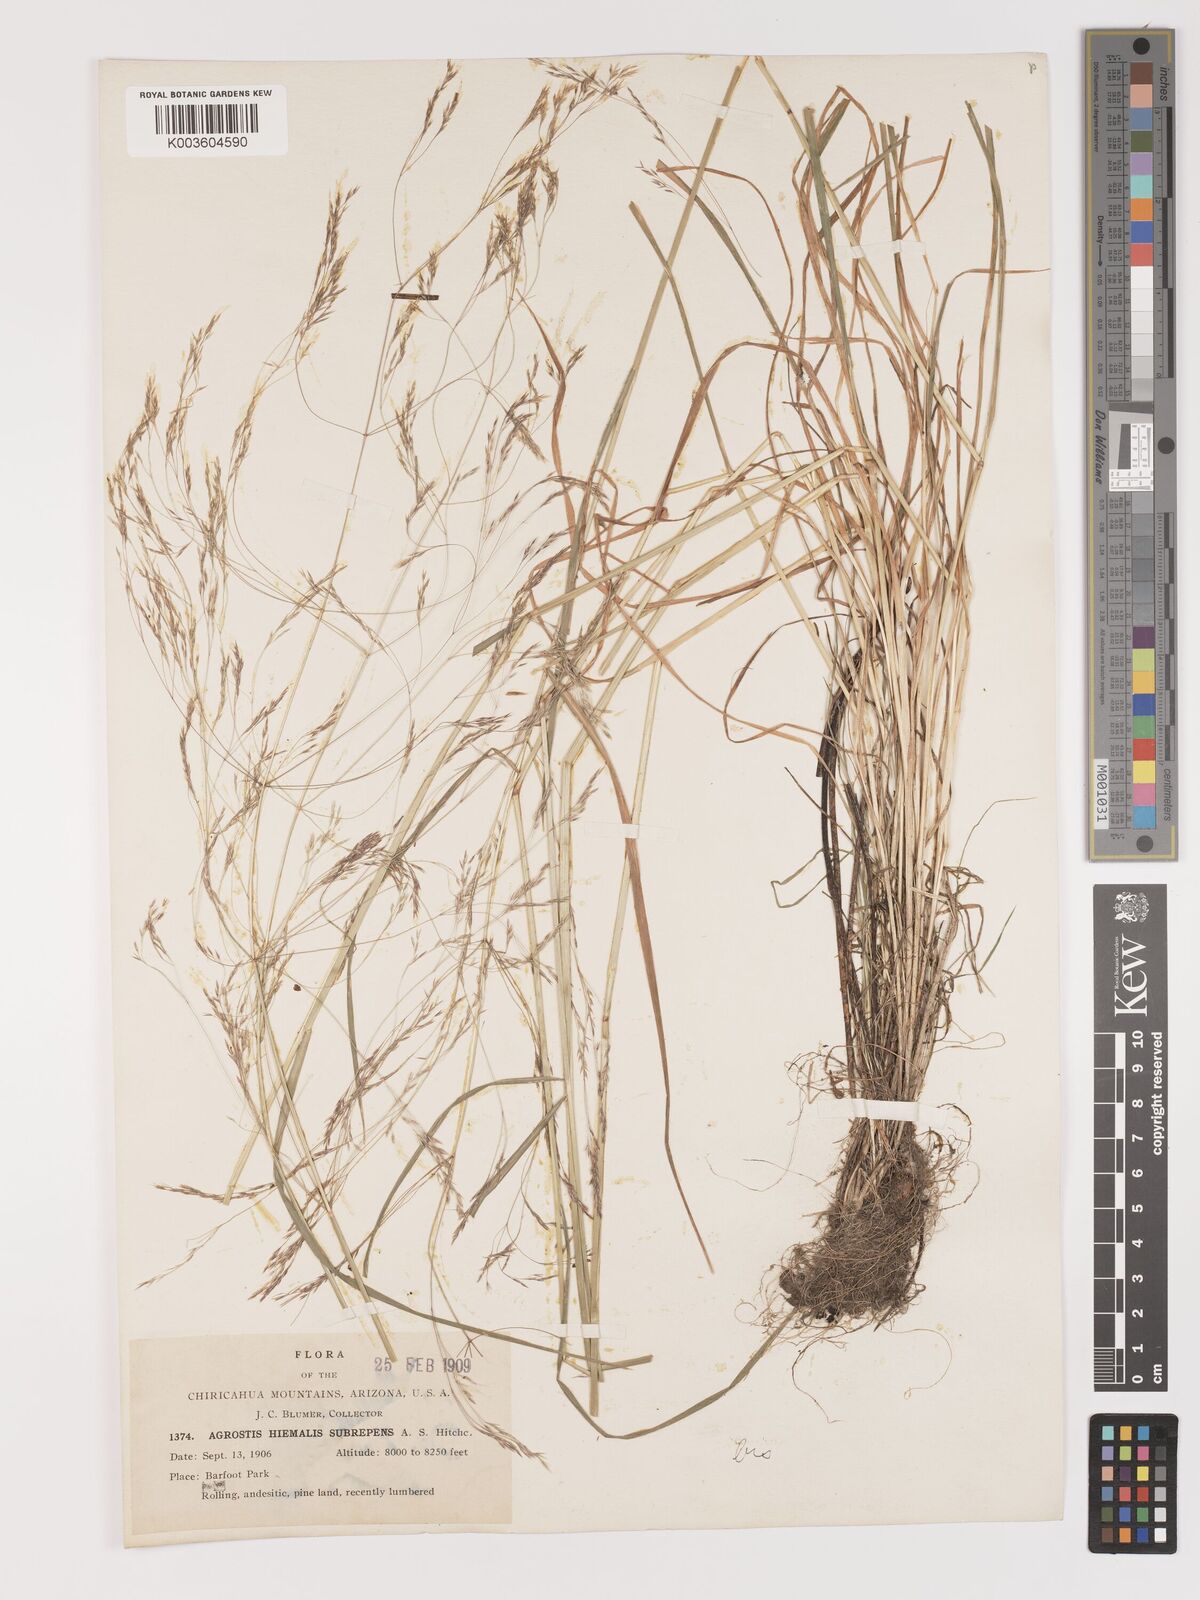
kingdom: Plantae
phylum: Tracheophyta
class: Liliopsida
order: Poales
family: Poaceae
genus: Agrostis
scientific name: Agrostis hyemalis
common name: Small bent
